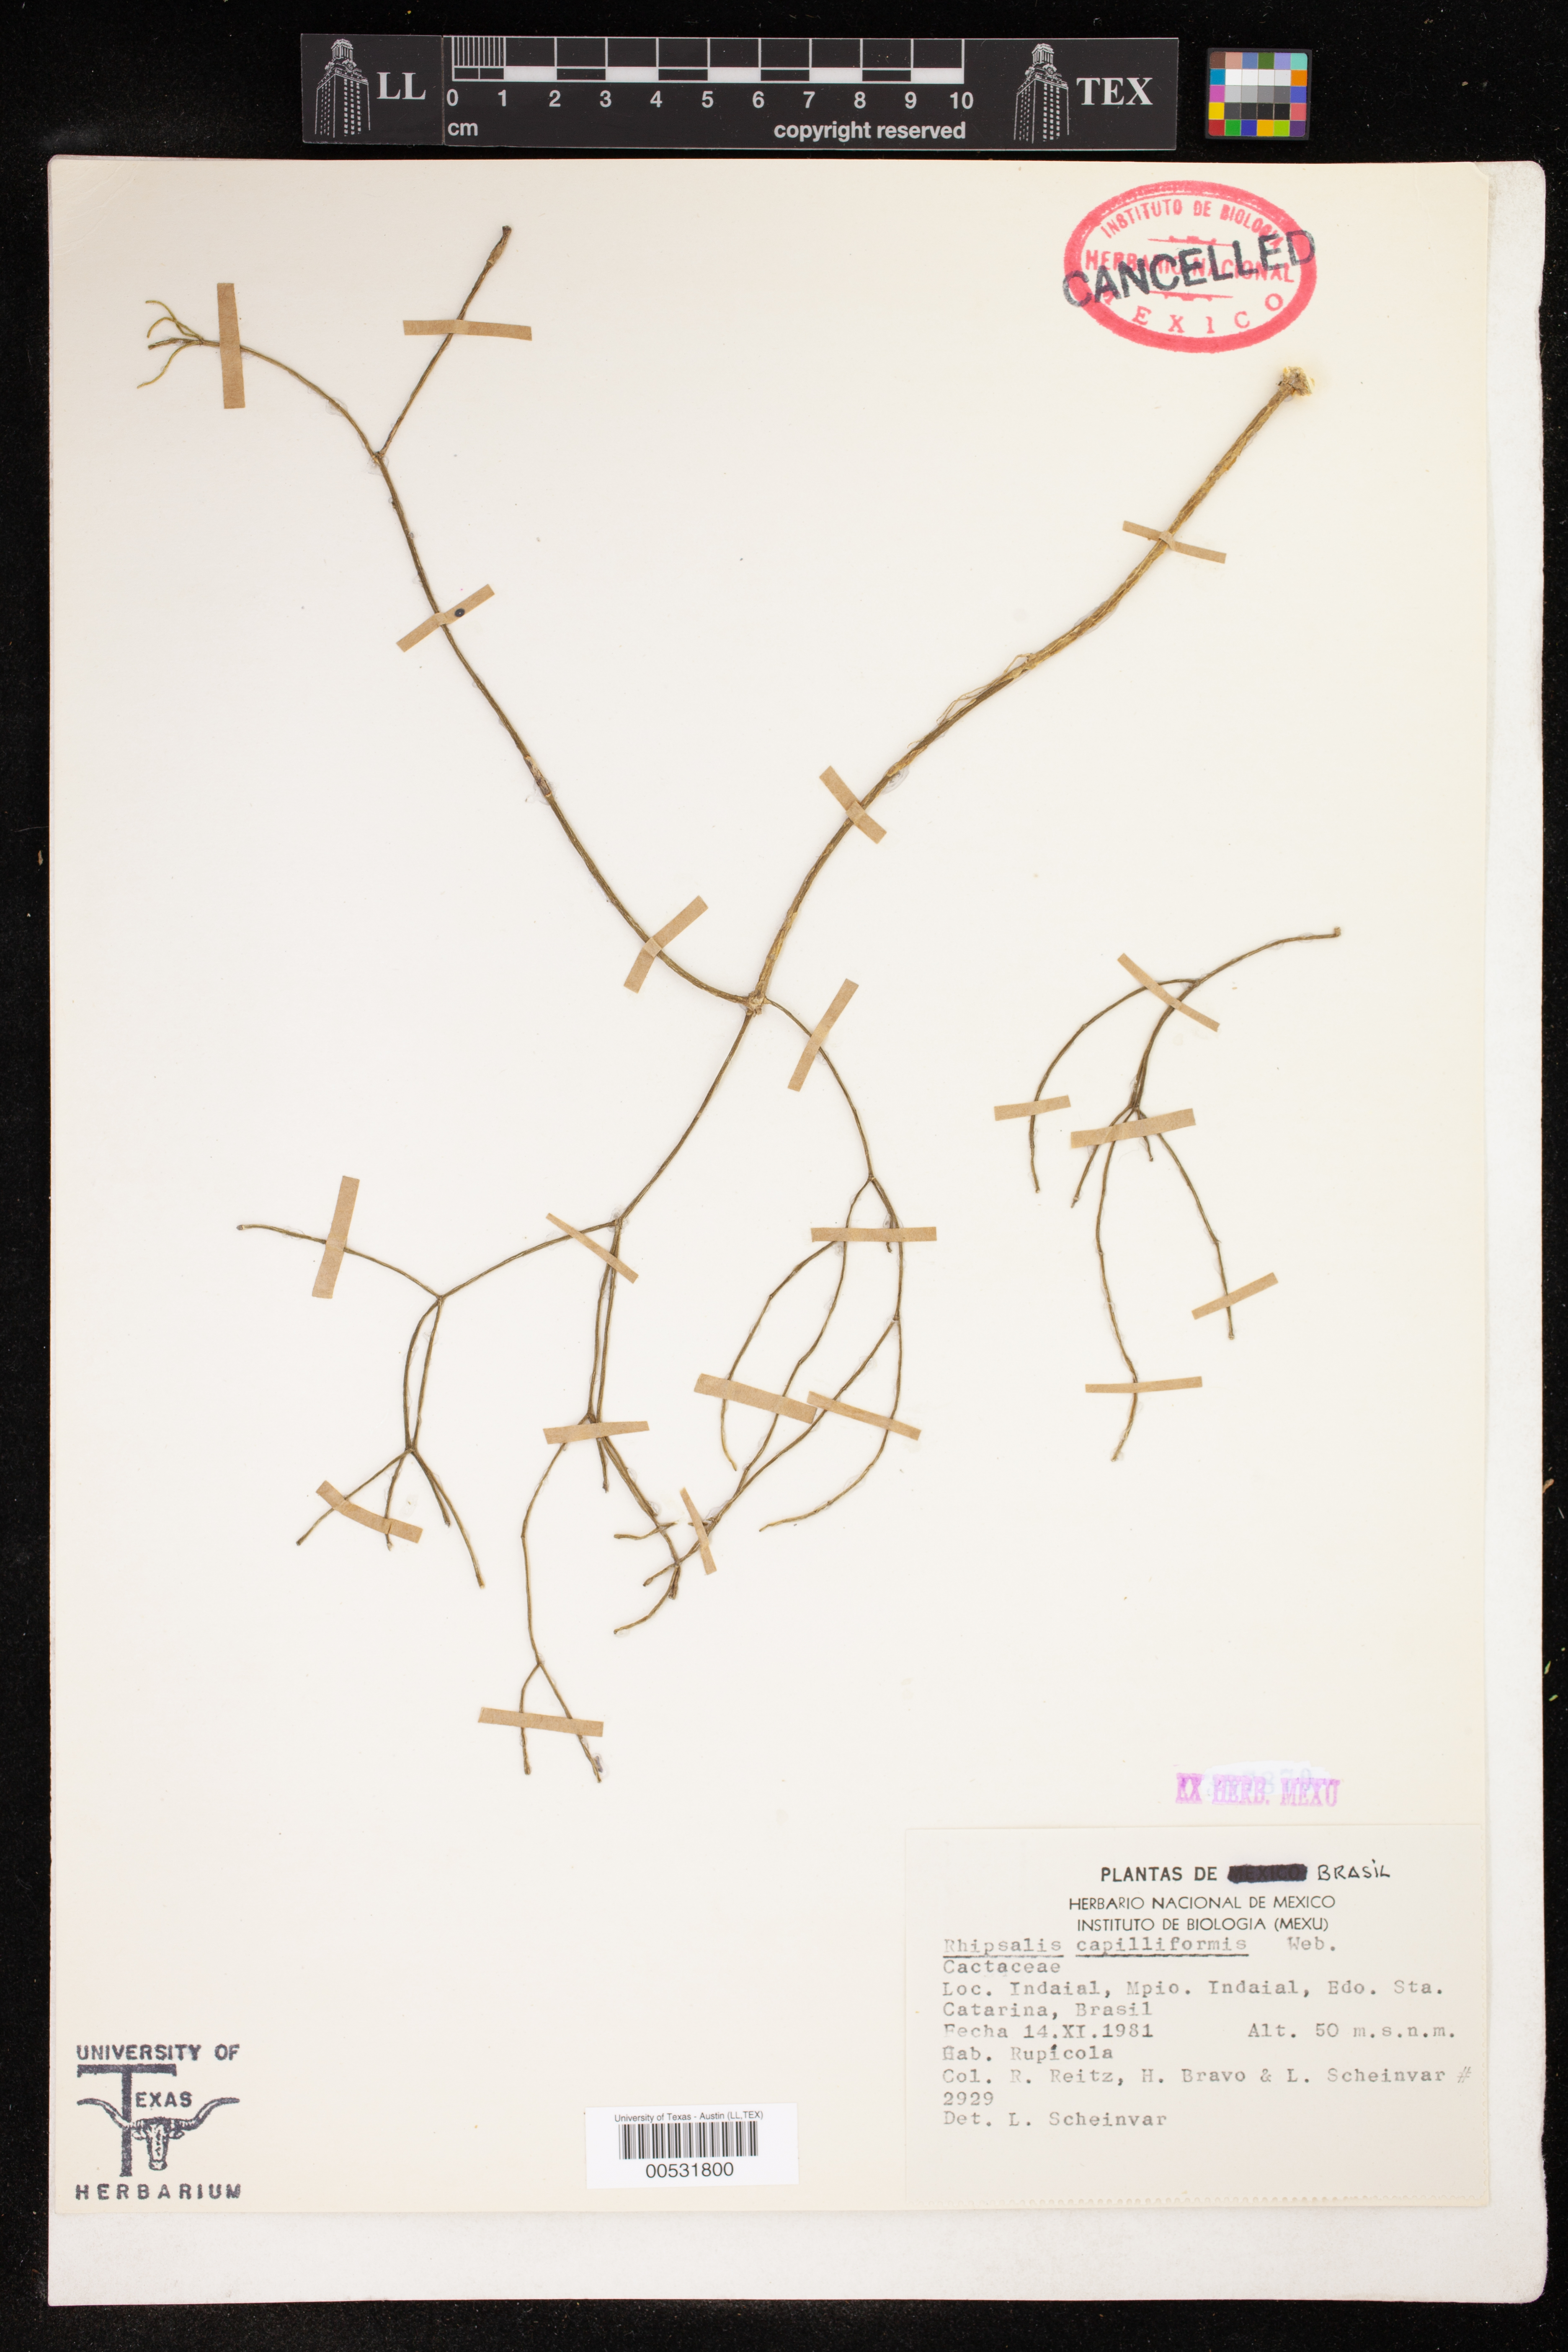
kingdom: Plantae
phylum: Tracheophyta
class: Magnoliopsida
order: Caryophyllales
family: Cactaceae
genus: Rhipsalis
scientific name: Rhipsalis teres
